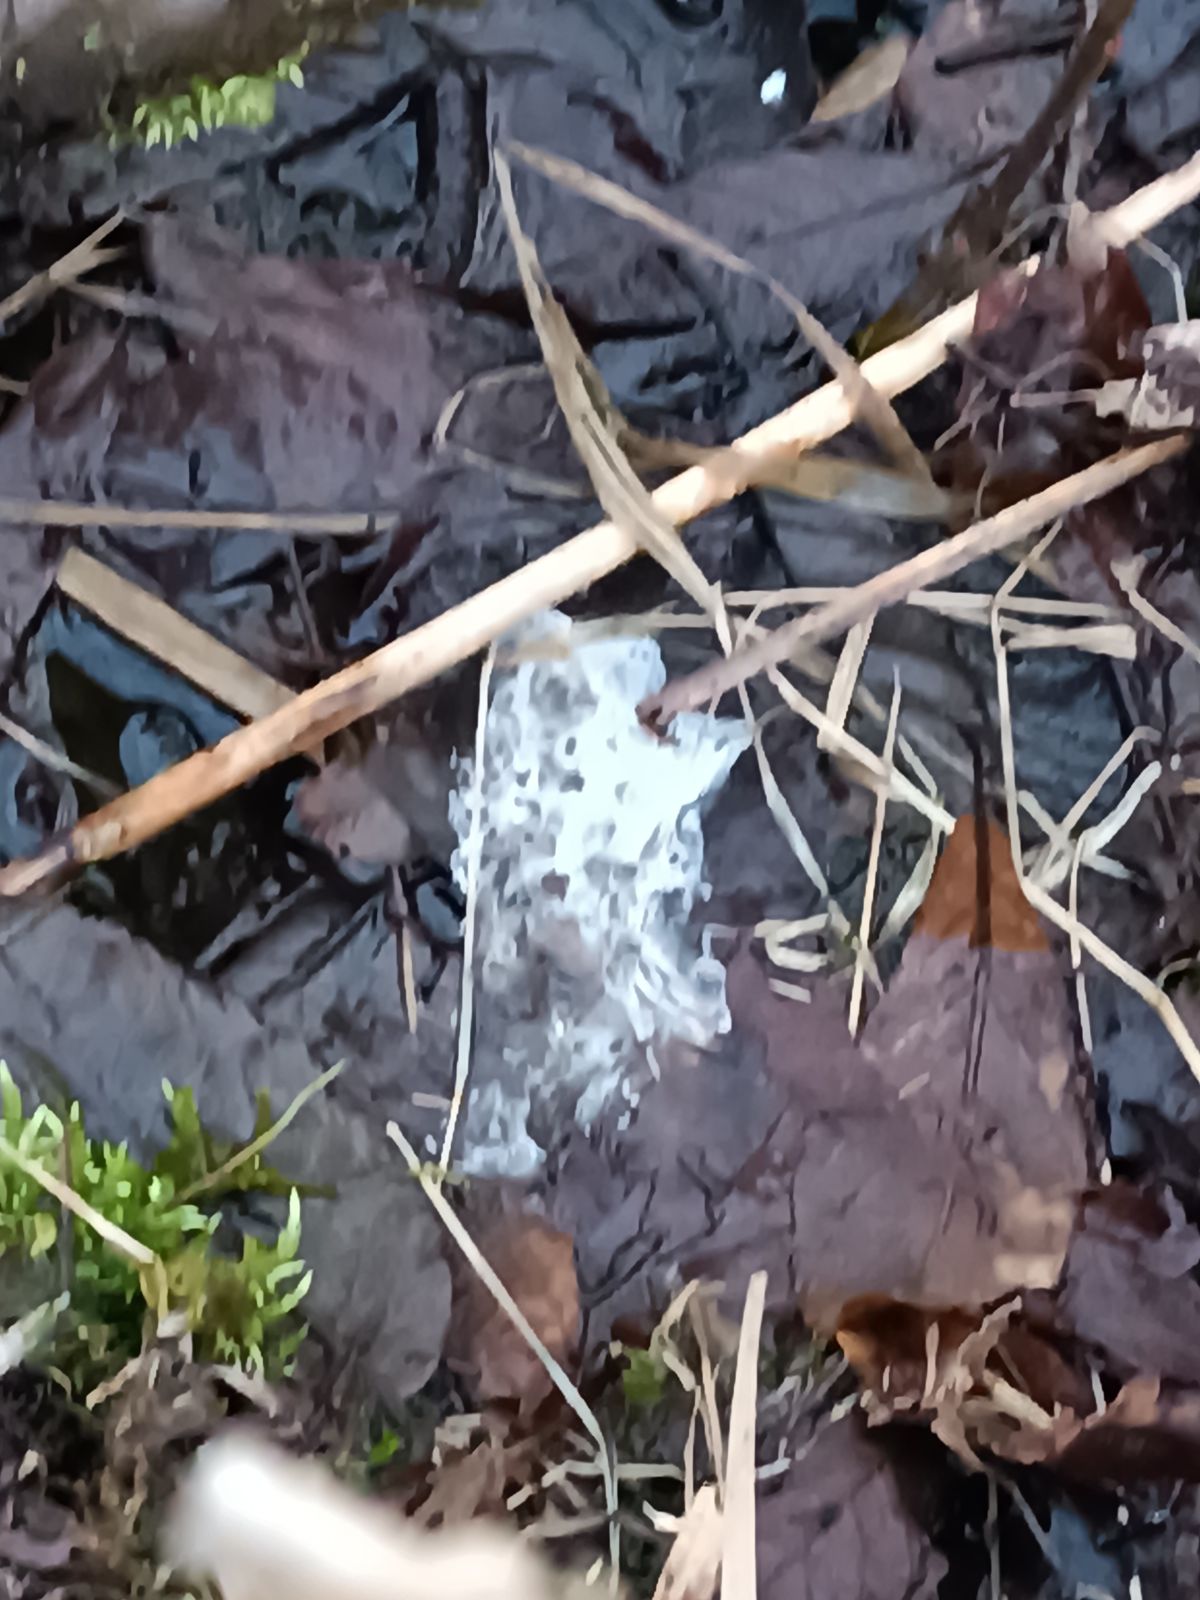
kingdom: Animalia
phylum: Chordata
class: Aves
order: Charadriiformes
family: Scolopacidae
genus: Scolopax
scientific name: Scolopax rusticola
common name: Eurasian woodcock
